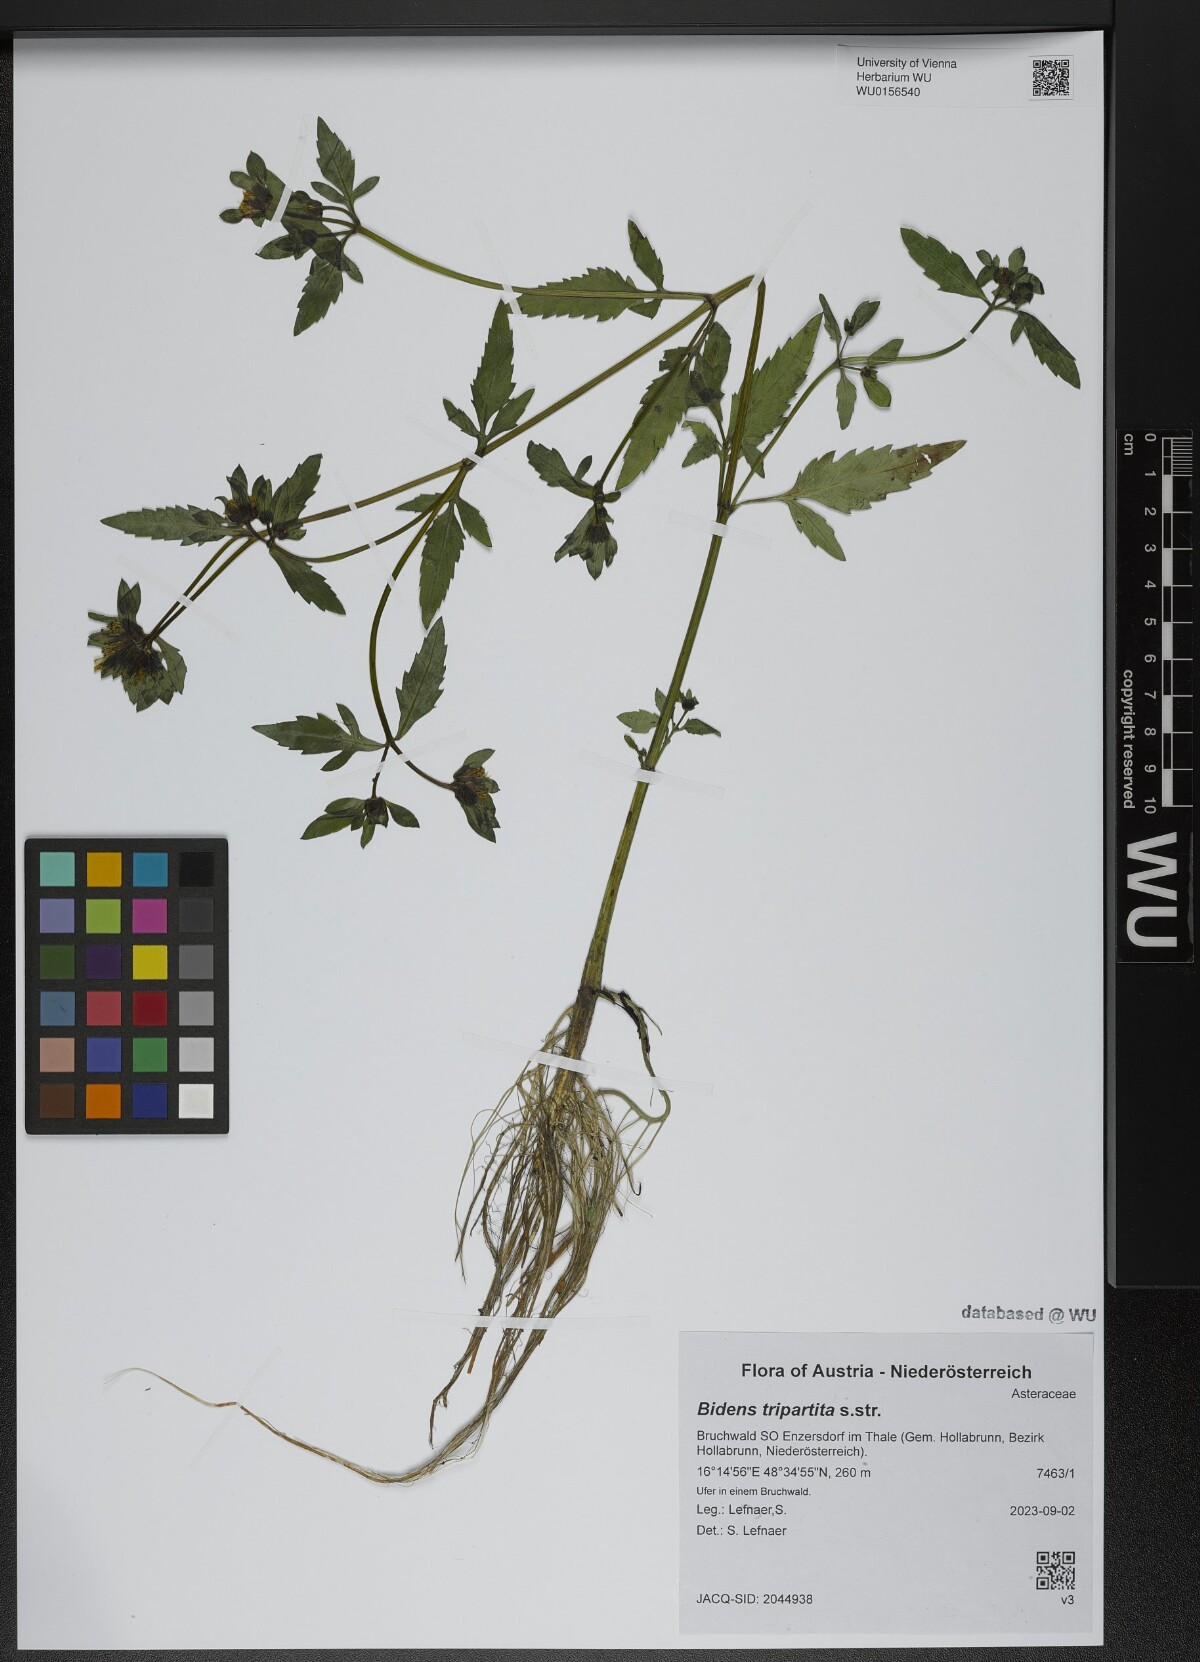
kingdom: Plantae
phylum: Tracheophyta
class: Magnoliopsida
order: Asterales
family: Asteraceae
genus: Bidens
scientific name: Bidens tripartita
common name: Trifid bur-marigold
